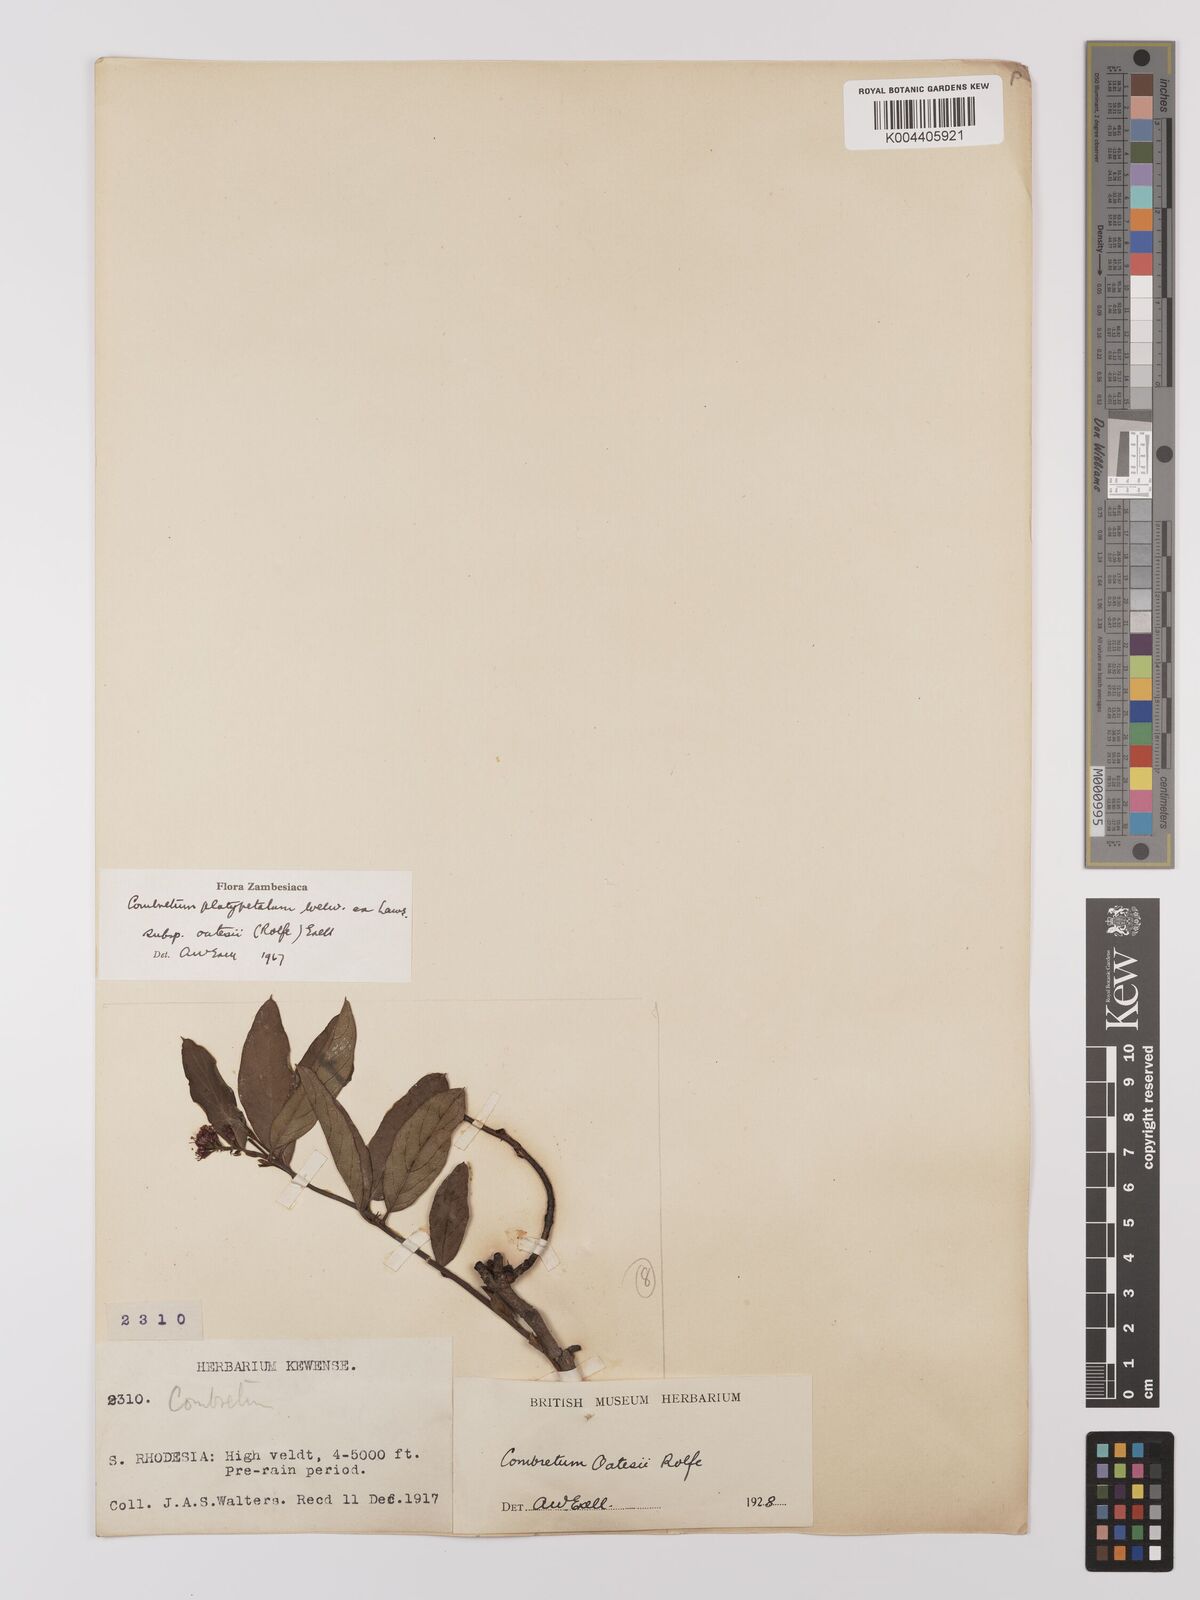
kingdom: Plantae
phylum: Tracheophyta
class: Magnoliopsida
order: Myrtales
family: Combretaceae
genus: Combretum
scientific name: Combretum platypetalum
